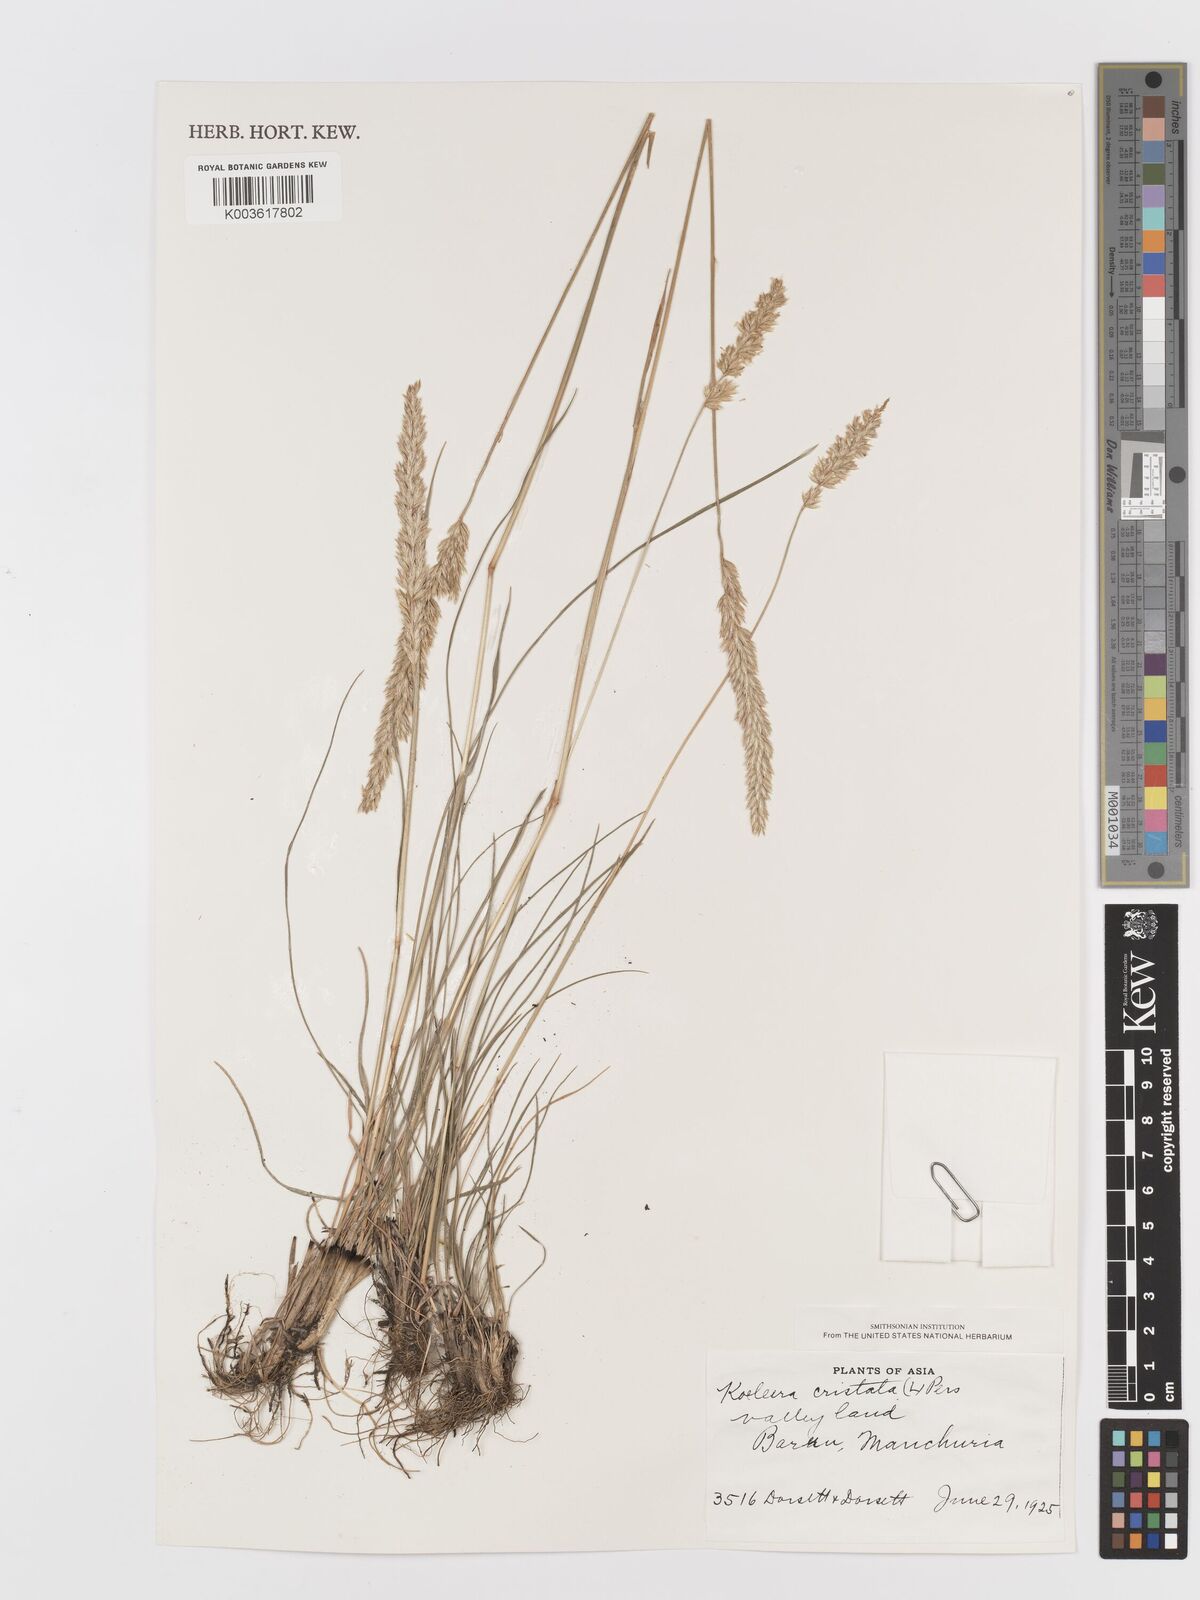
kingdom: Plantae
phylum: Tracheophyta
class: Liliopsida
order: Poales
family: Poaceae
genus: Koeleria
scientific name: Koeleria macrantha
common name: Crested hair-grass
